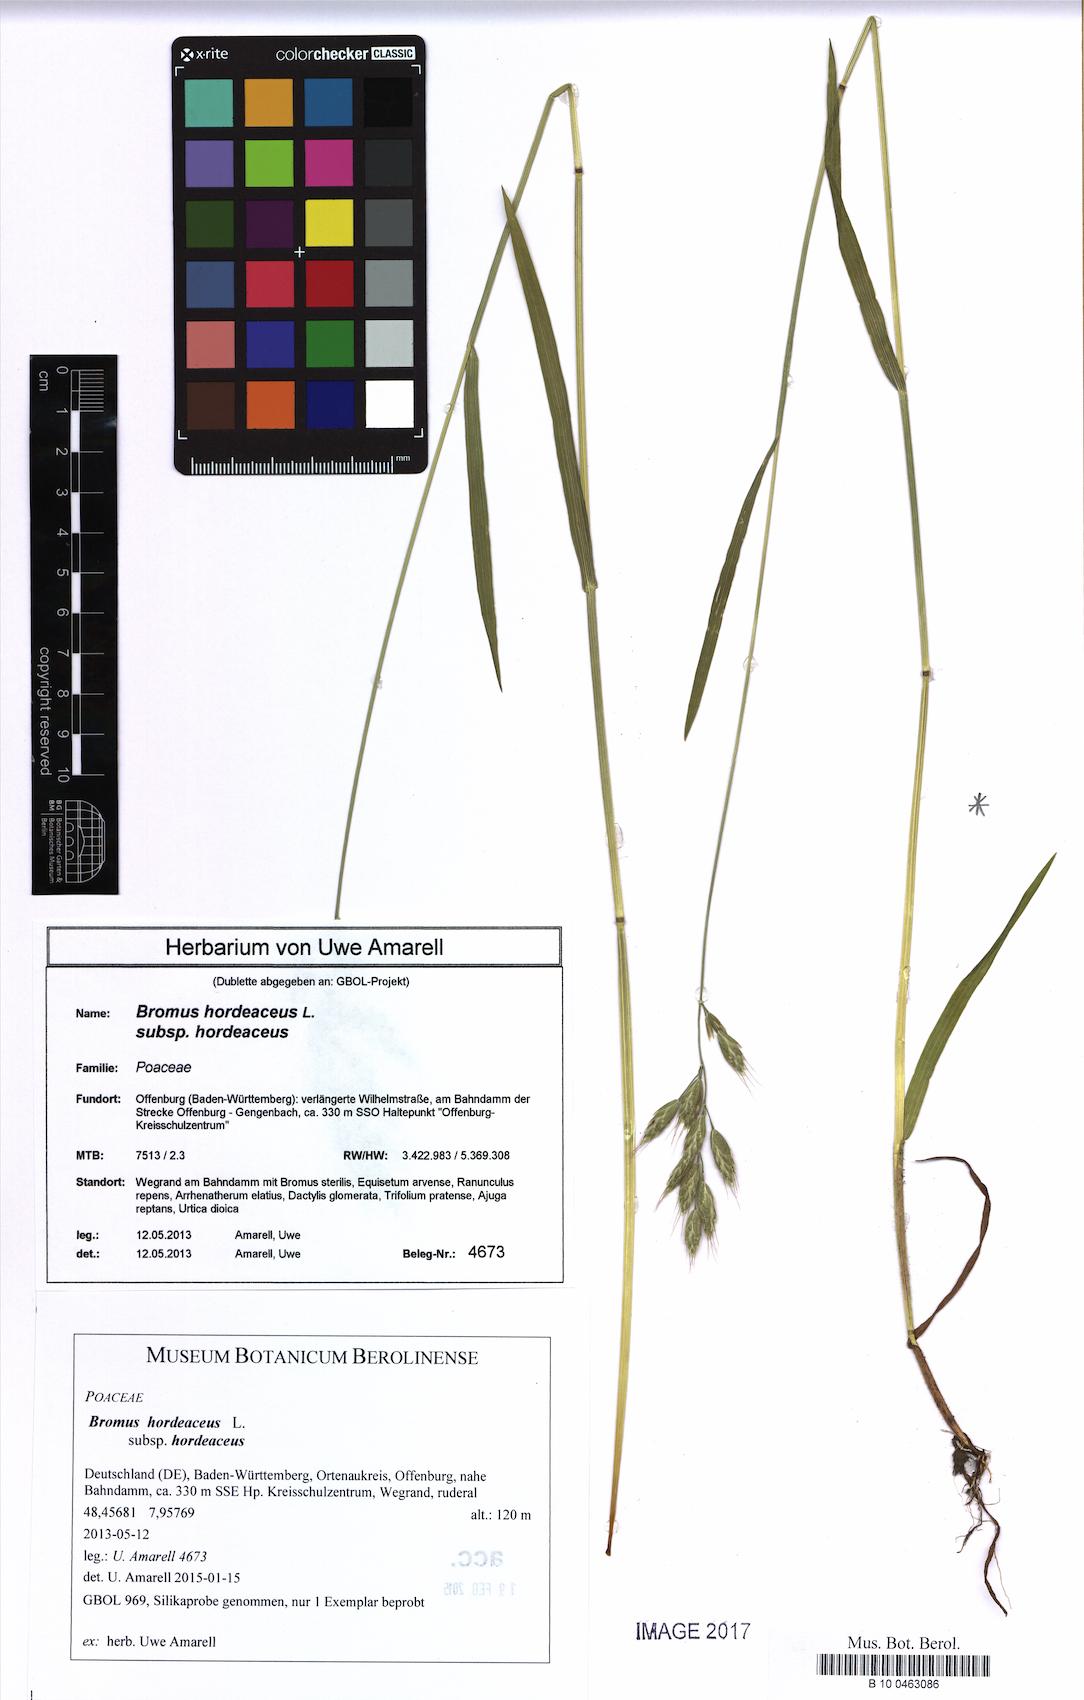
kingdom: Plantae
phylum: Tracheophyta
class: Liliopsida
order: Poales
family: Poaceae
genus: Bromus
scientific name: Bromus hordeaceus
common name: Soft brome
